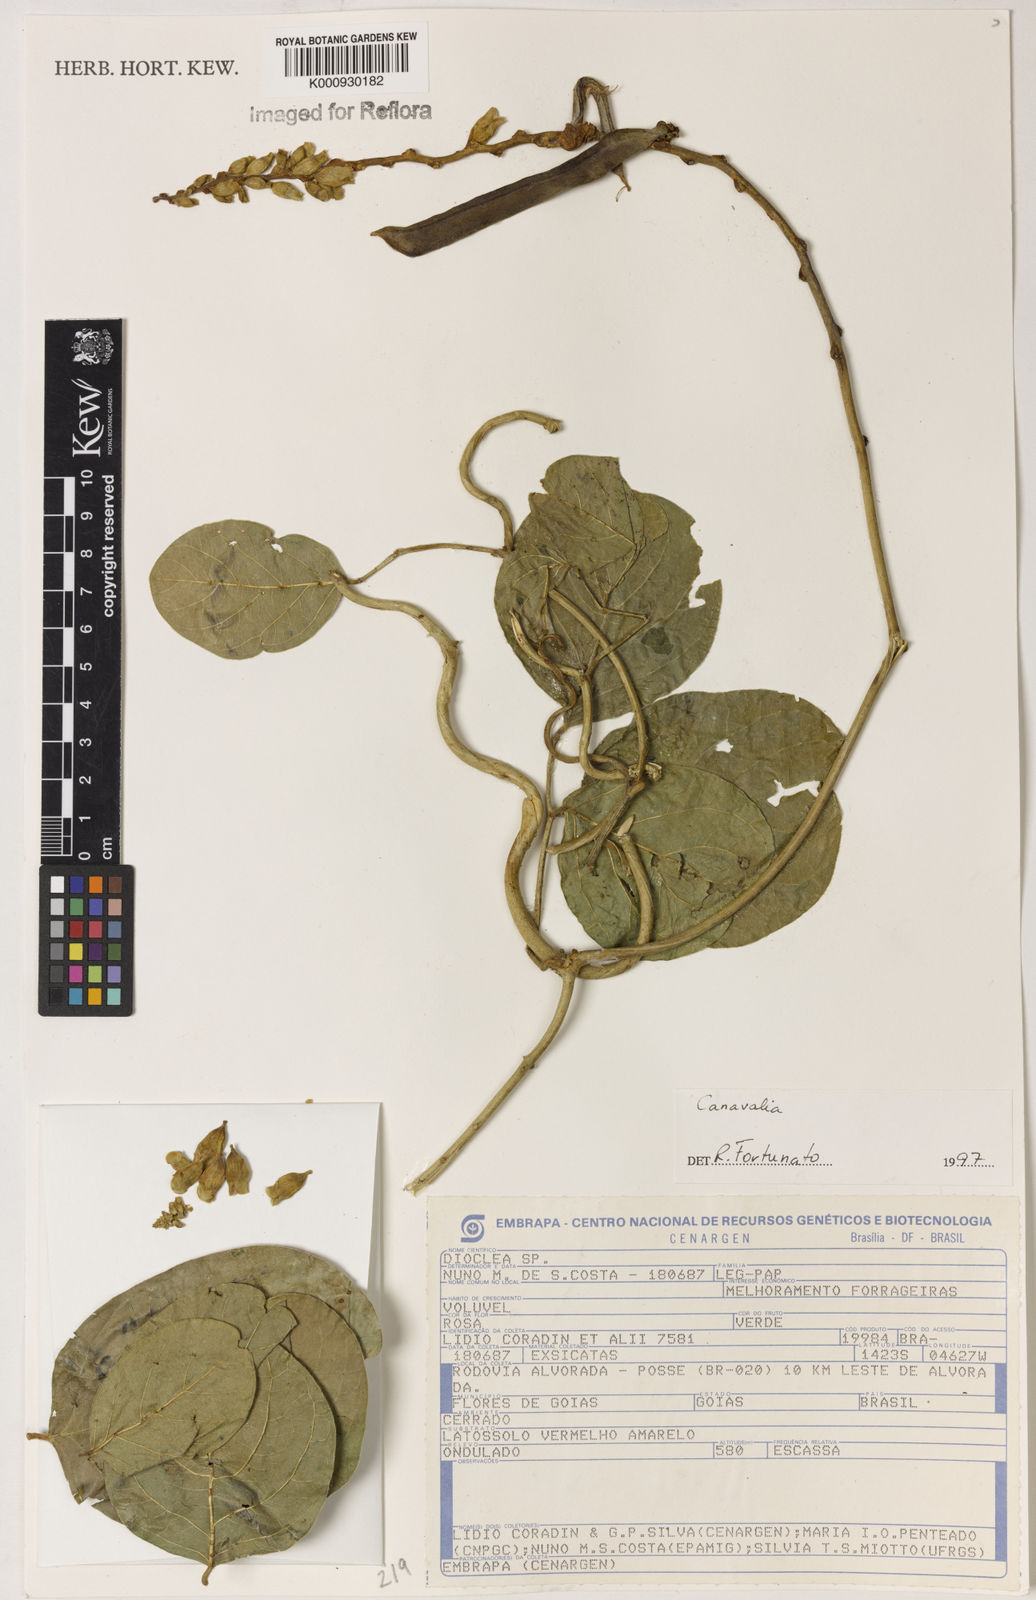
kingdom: Plantae
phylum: Tracheophyta
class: Magnoliopsida
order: Fabales
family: Fabaceae
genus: Canavalia
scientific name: Canavalia
